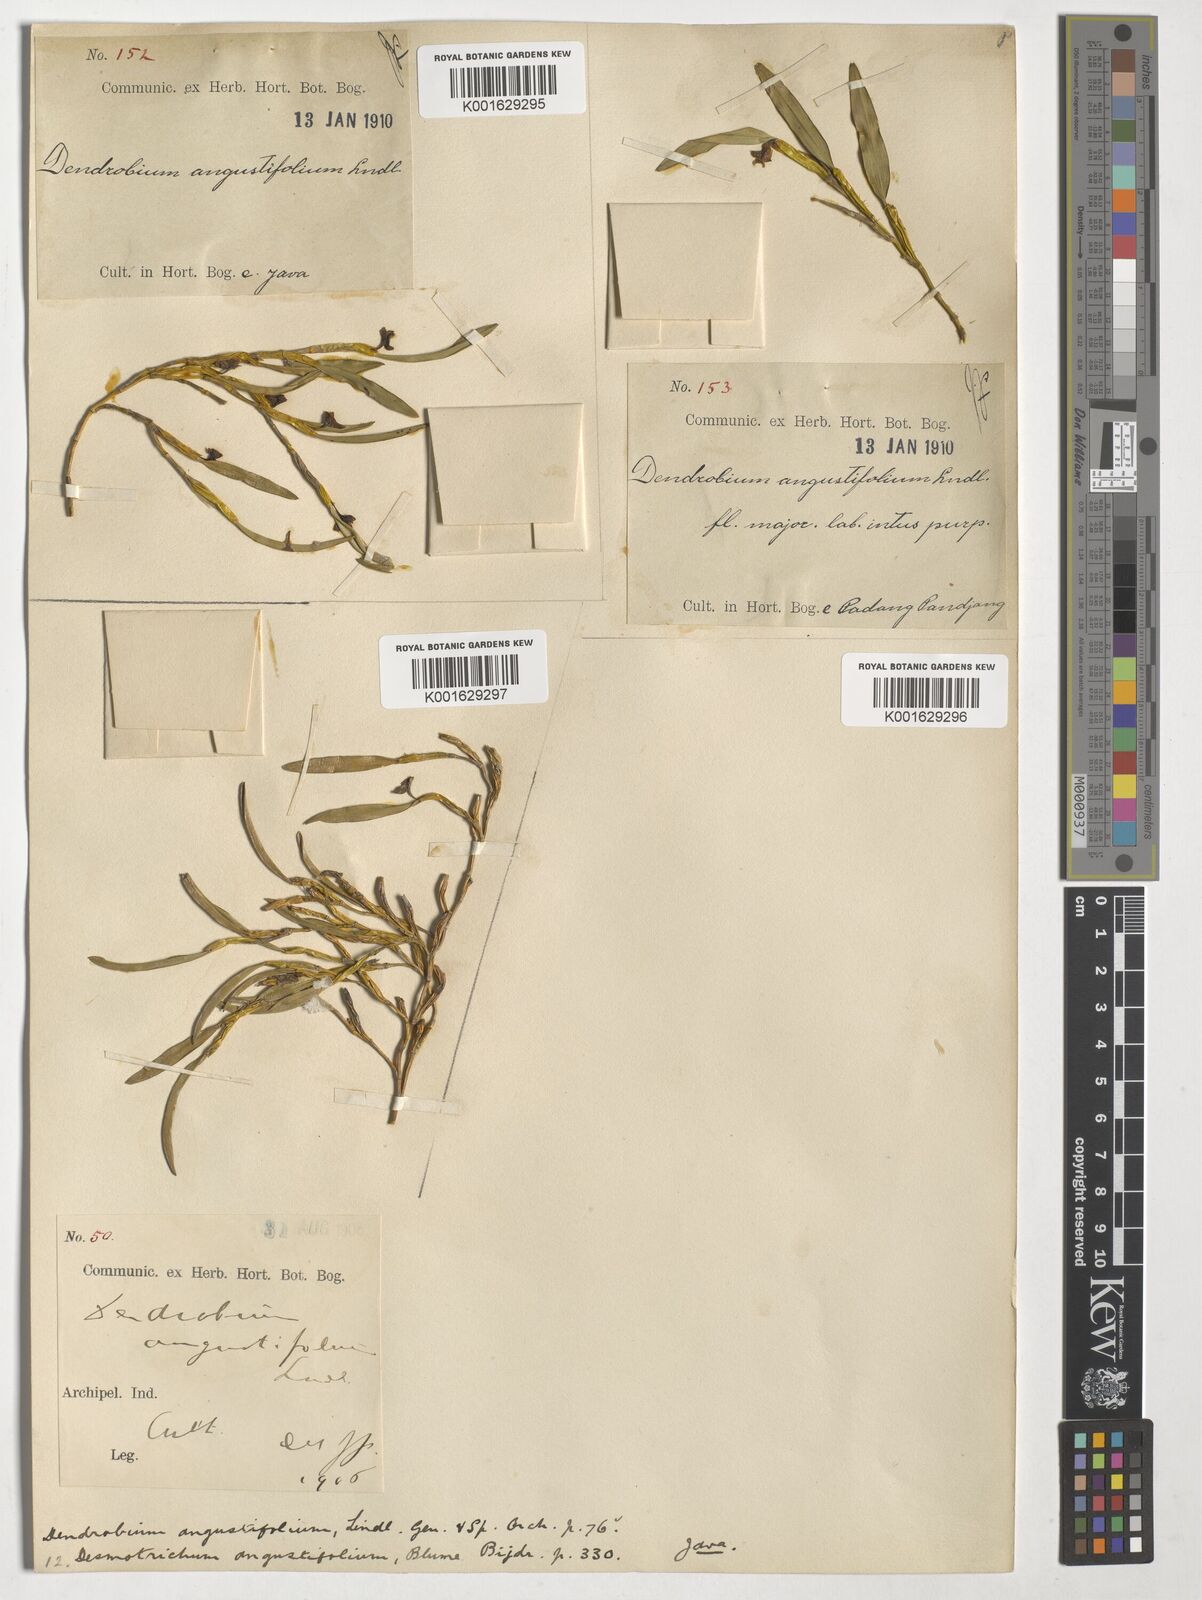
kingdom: Plantae
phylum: Tracheophyta
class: Liliopsida
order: Asparagales
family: Orchidaceae
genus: Adenoncos
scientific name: Adenoncos major
